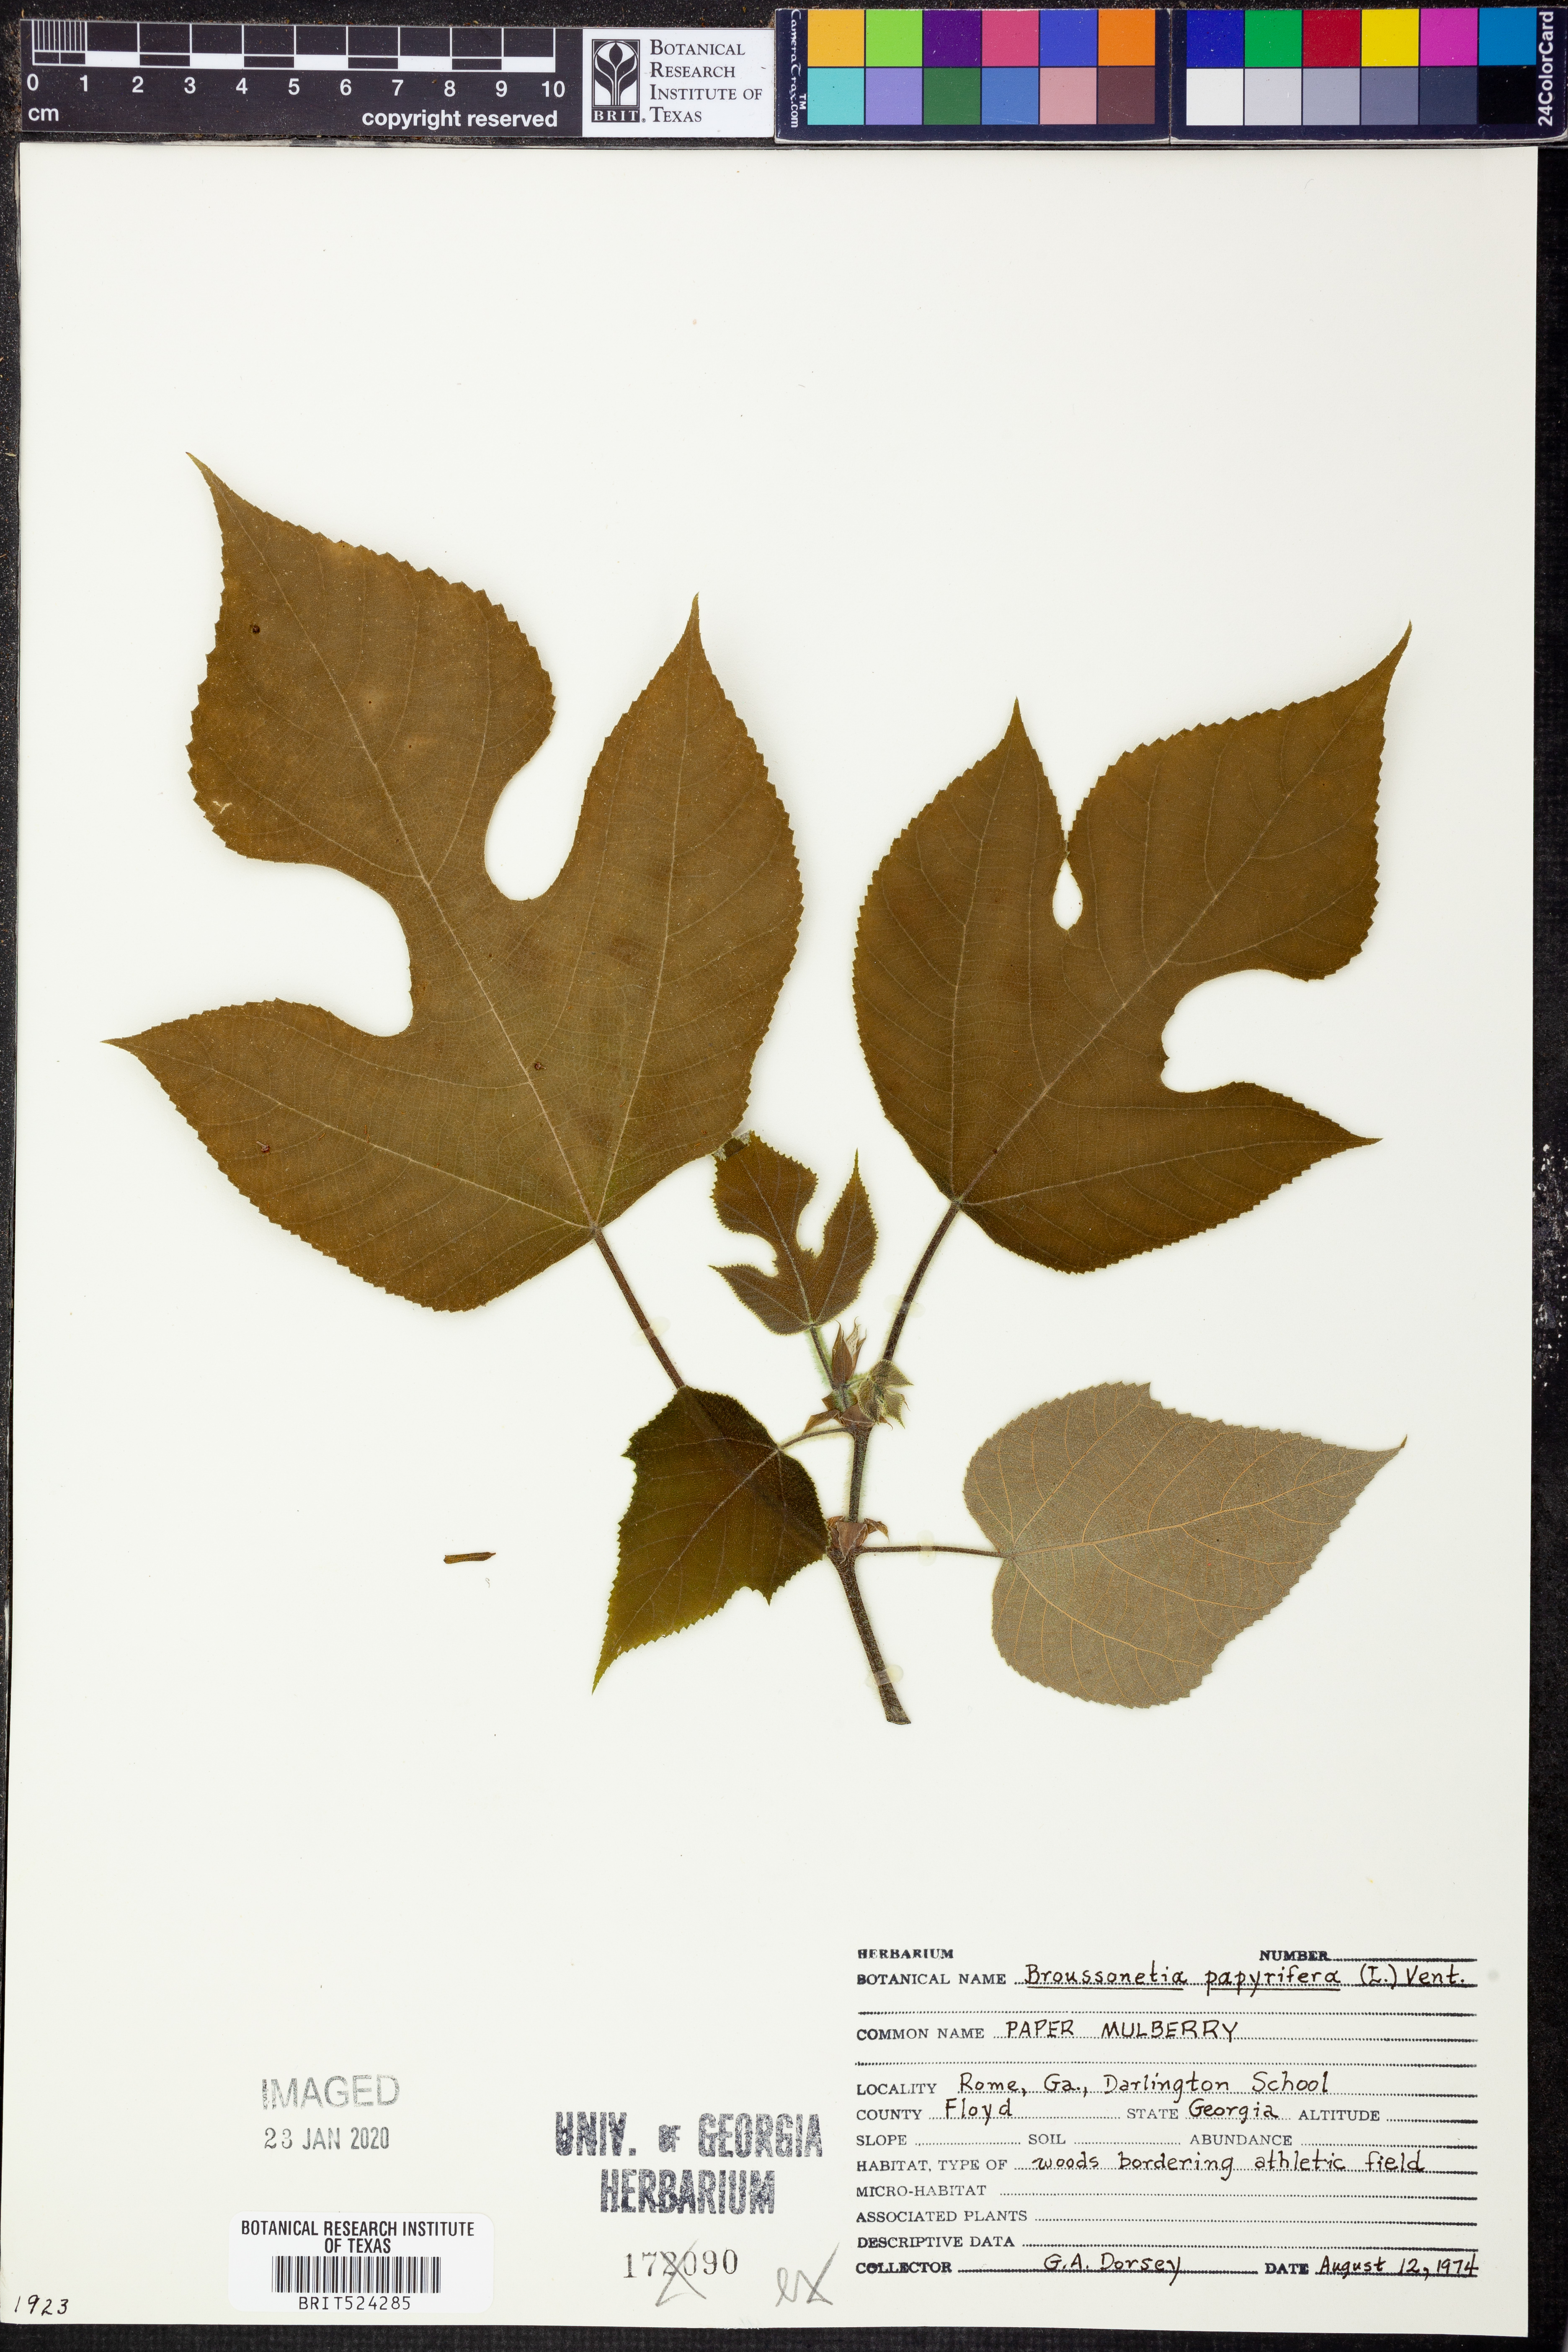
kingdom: Plantae
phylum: Tracheophyta
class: Magnoliopsida
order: Rosales
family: Moraceae
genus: Broussonetia
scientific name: Broussonetia papyrifera
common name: Paper mulberry
